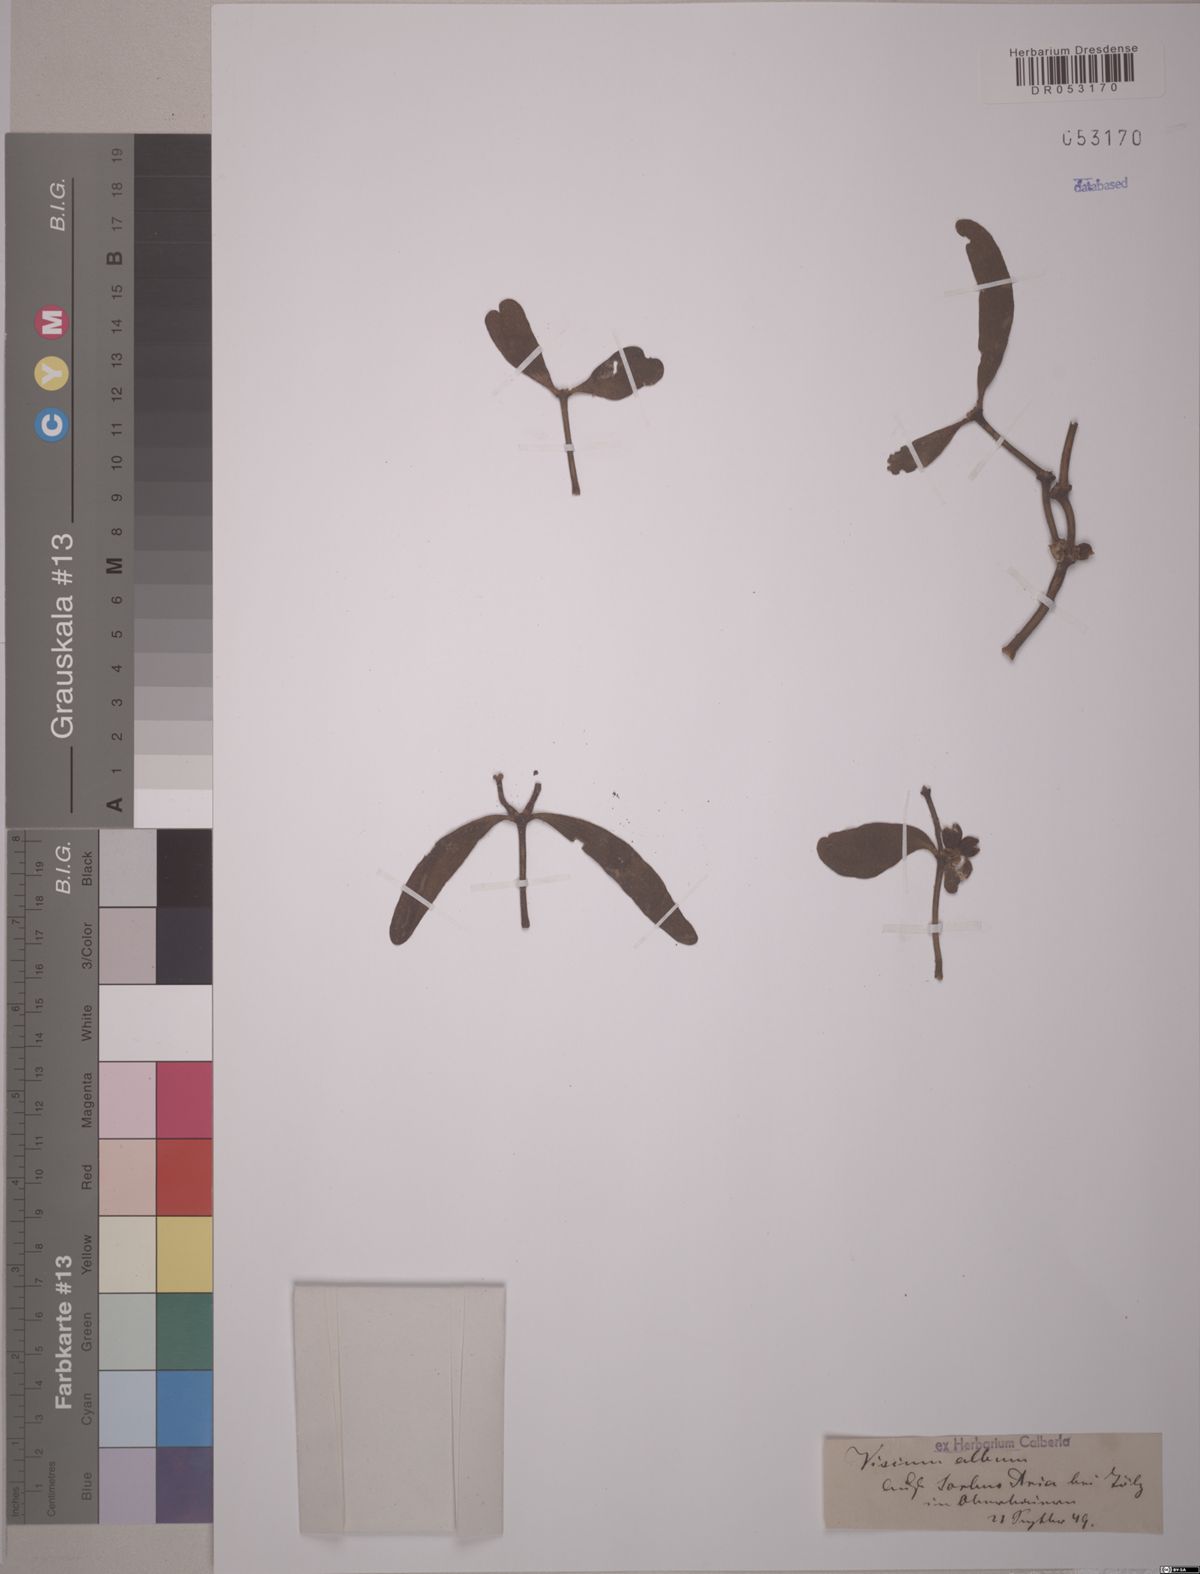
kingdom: Plantae
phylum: Tracheophyta
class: Magnoliopsida
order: Santalales
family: Viscaceae
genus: Viscum
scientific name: Viscum album
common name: Mistletoe
